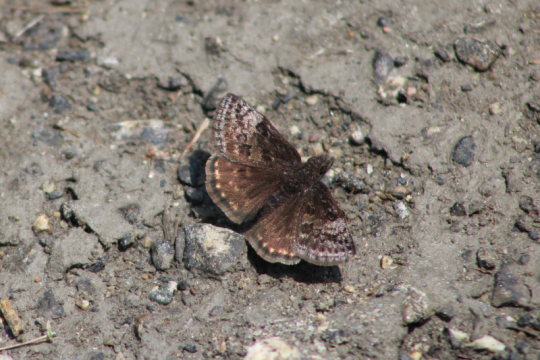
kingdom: Animalia
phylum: Arthropoda
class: Insecta
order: Lepidoptera
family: Hesperiidae
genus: Erynnis
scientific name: Erynnis icelus
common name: Dreamy Duskywing
